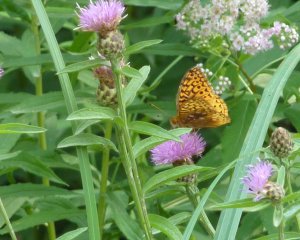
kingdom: Animalia
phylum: Arthropoda
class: Insecta
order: Lepidoptera
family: Nymphalidae
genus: Speyeria
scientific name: Speyeria cybele
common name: Great Spangled Fritillary
